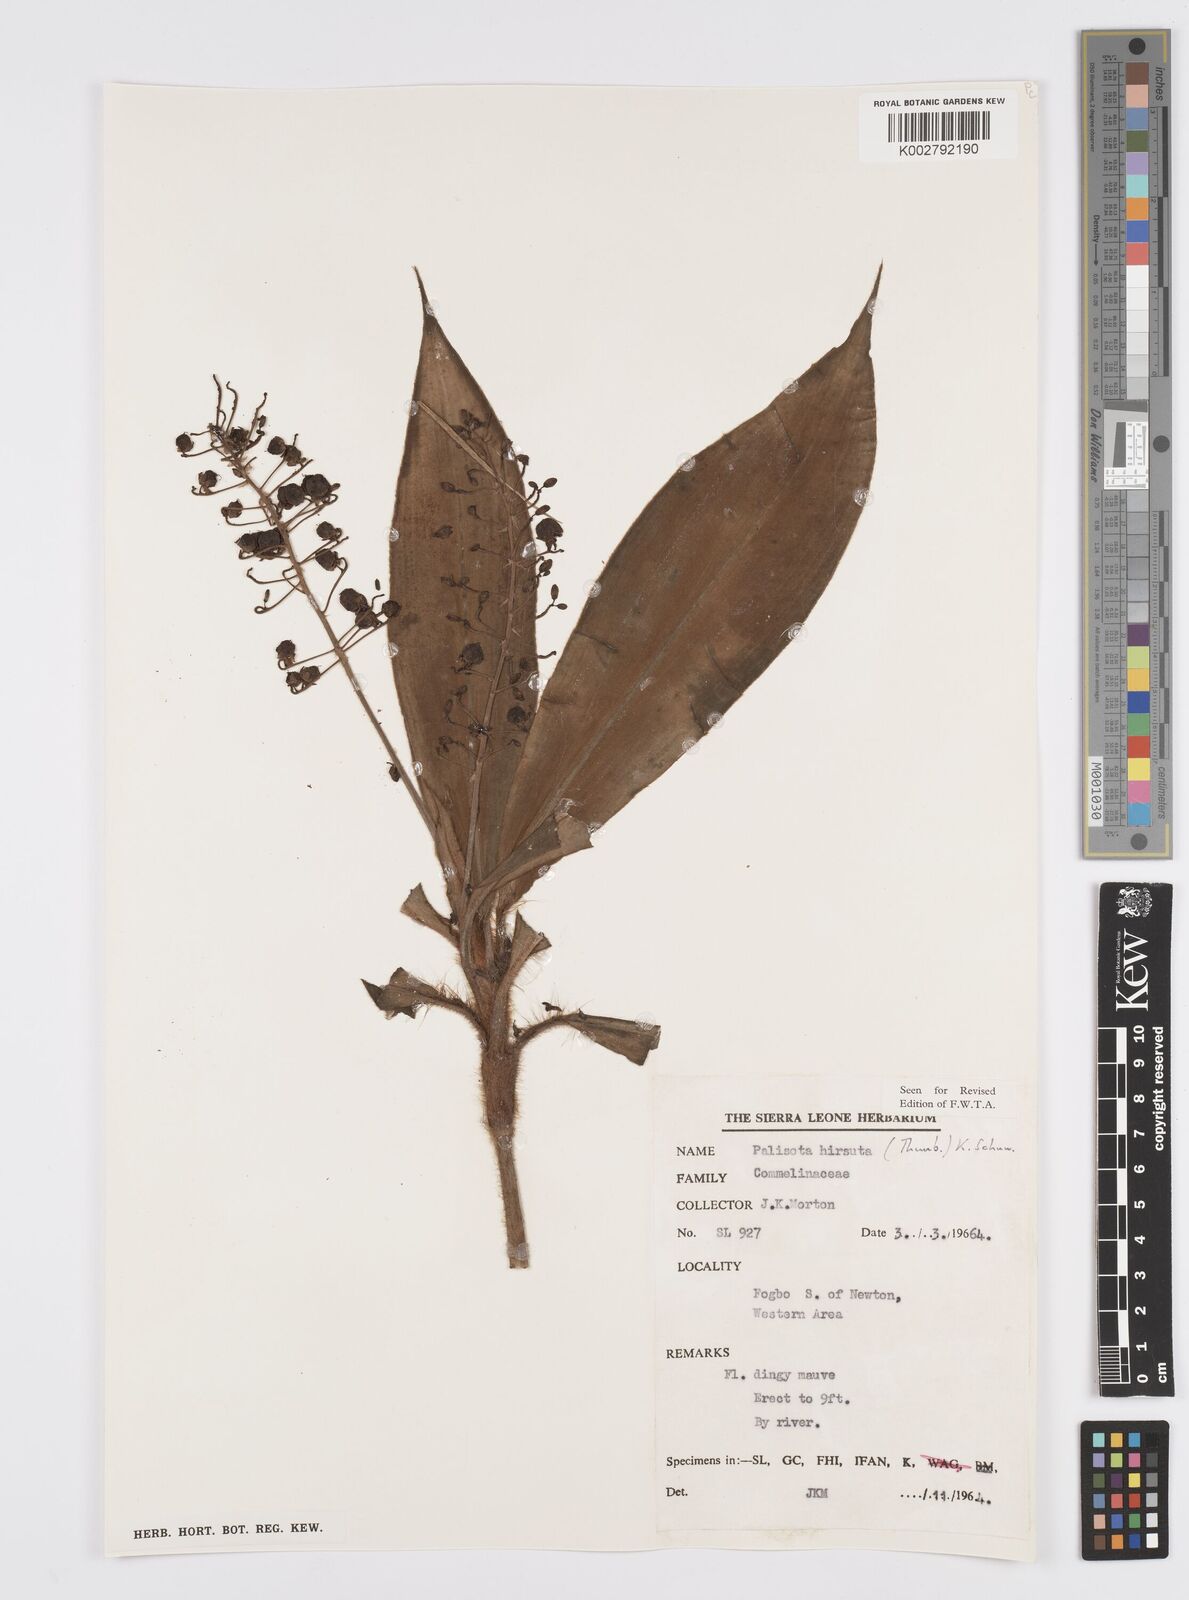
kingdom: Plantae
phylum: Tracheophyta
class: Liliopsida
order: Commelinales
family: Commelinaceae
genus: Palisota
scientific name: Palisota hirsuta
